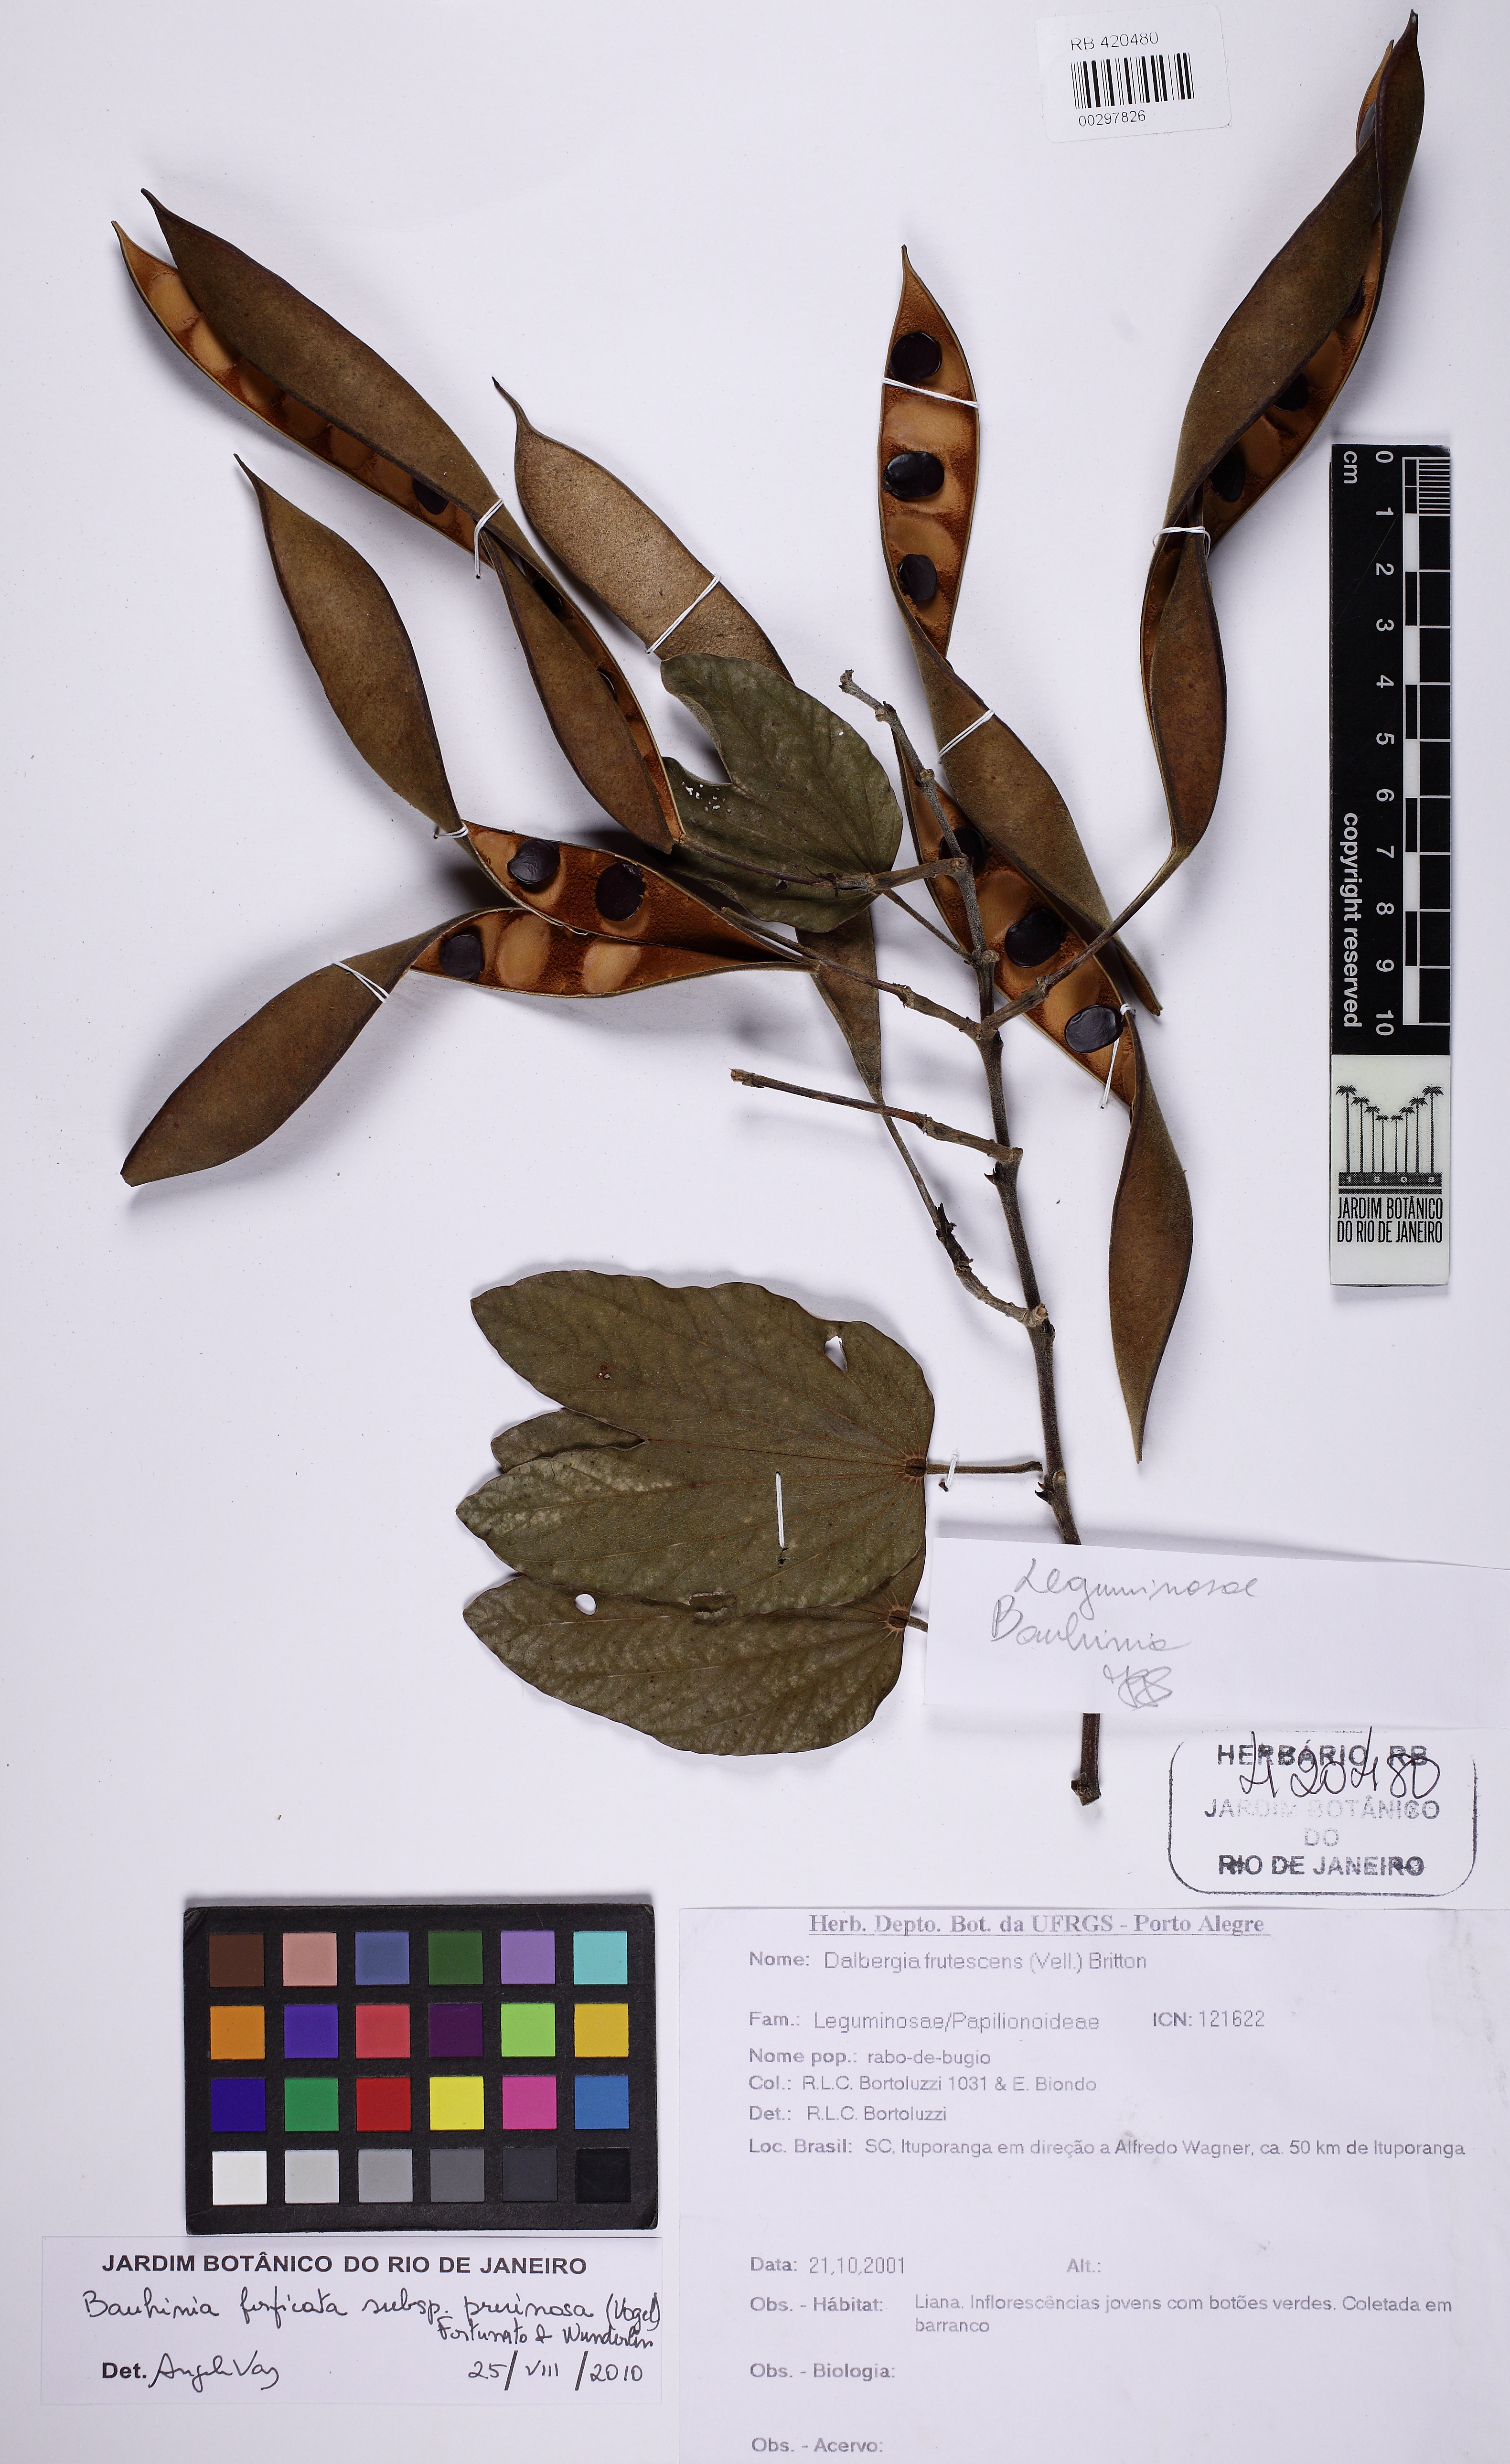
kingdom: Plantae
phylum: Tracheophyta
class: Magnoliopsida
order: Fabales
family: Fabaceae
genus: Bauhinia
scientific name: Bauhinia forficata
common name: Orchid tree
